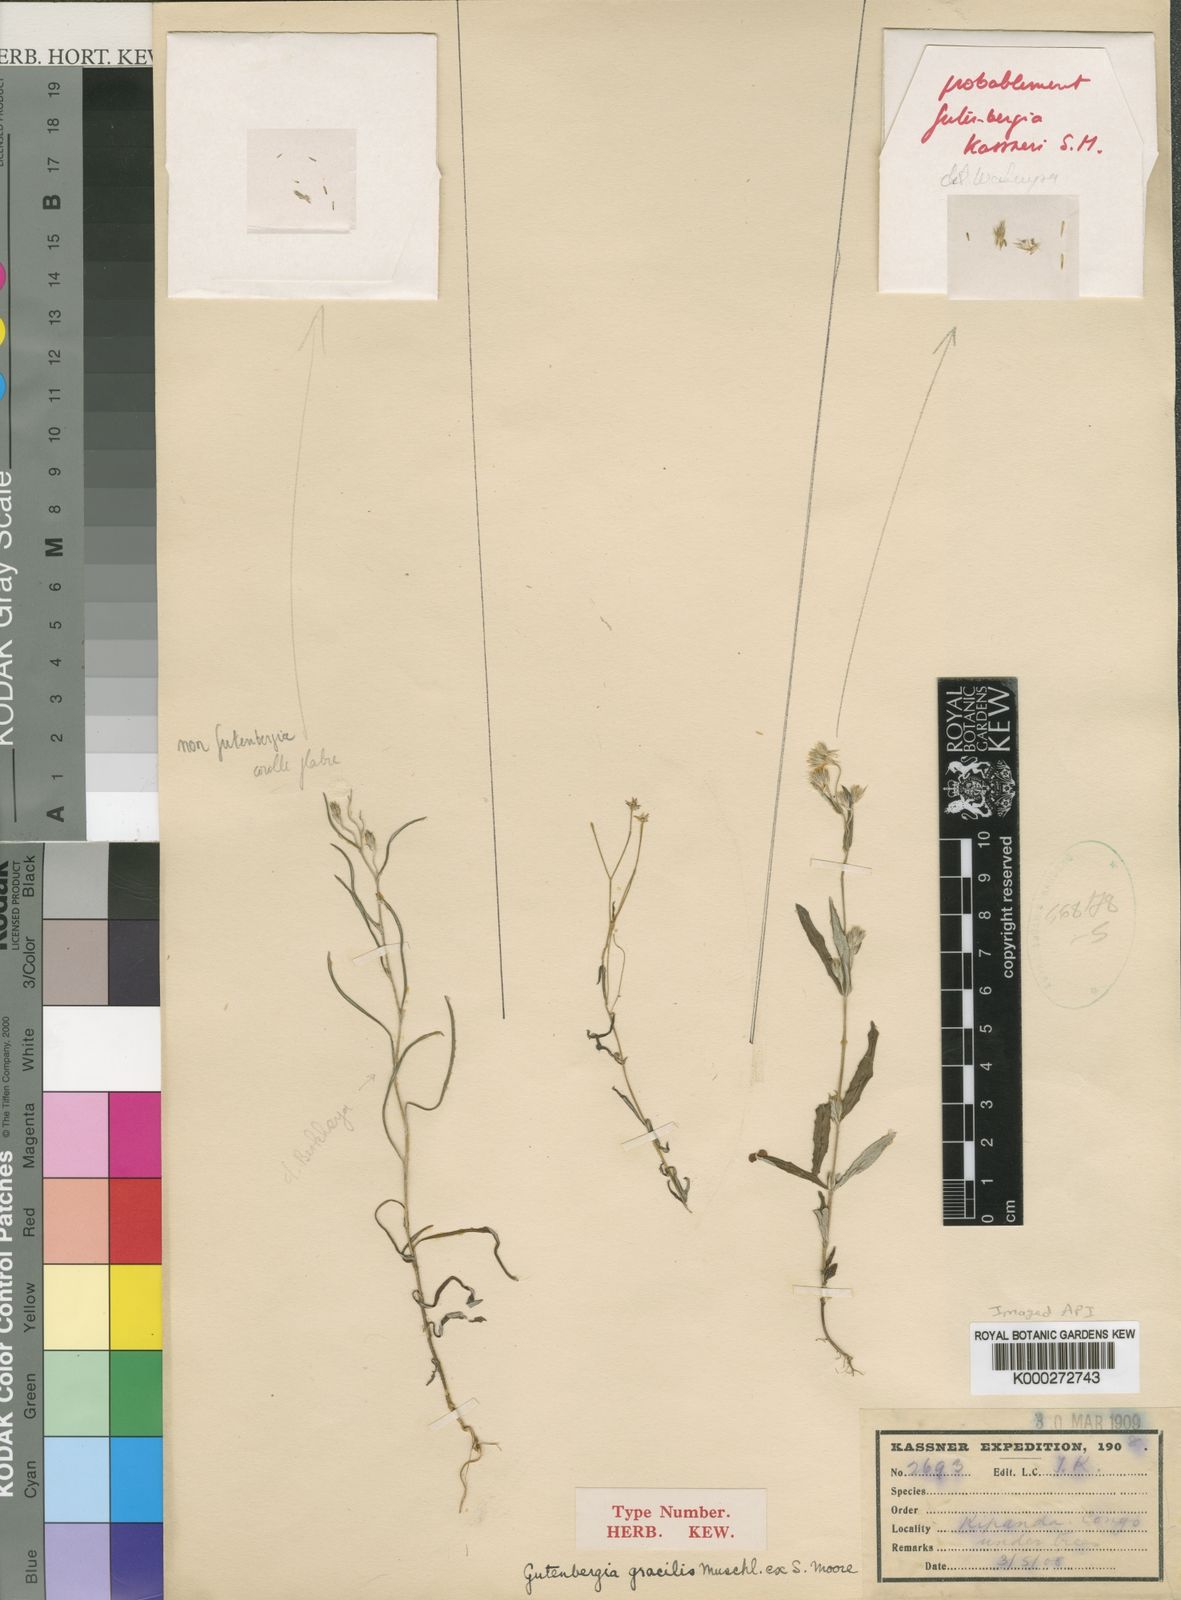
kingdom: Plantae
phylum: Tracheophyta
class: Magnoliopsida
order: Asterales
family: Asteraceae
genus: Gutenbergia
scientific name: Gutenbergia gracilis
